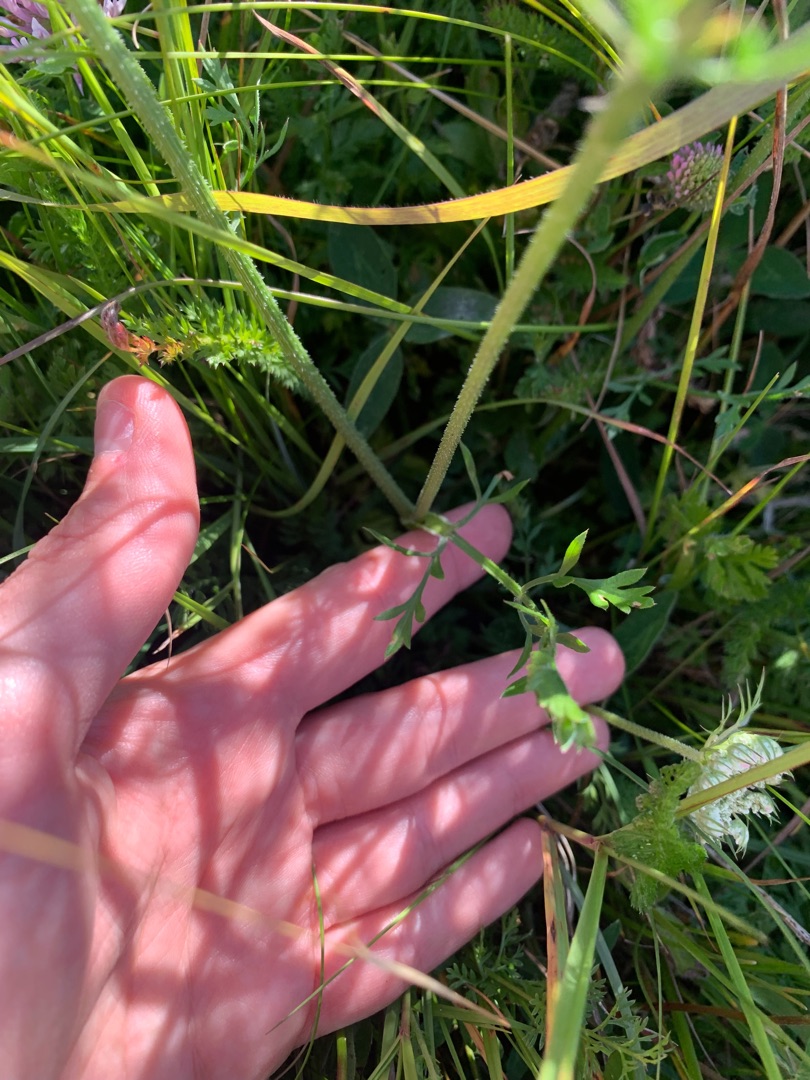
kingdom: Plantae
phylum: Tracheophyta
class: Magnoliopsida
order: Apiales
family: Apiaceae
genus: Daucus
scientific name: Daucus carota
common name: Vild gulerod
